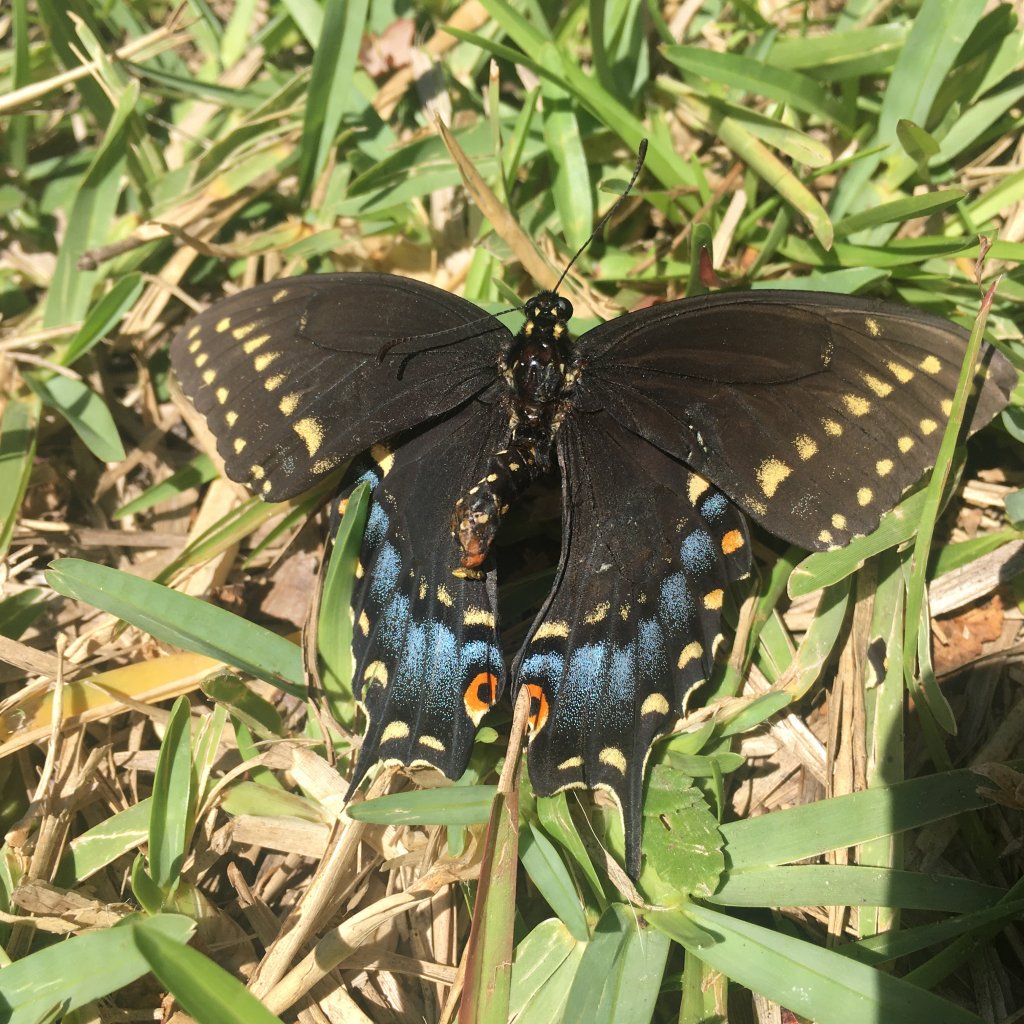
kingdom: Animalia
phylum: Arthropoda
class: Insecta
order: Lepidoptera
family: Papilionidae
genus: Papilio
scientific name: Papilio polyxenes
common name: Black Swallowtail
